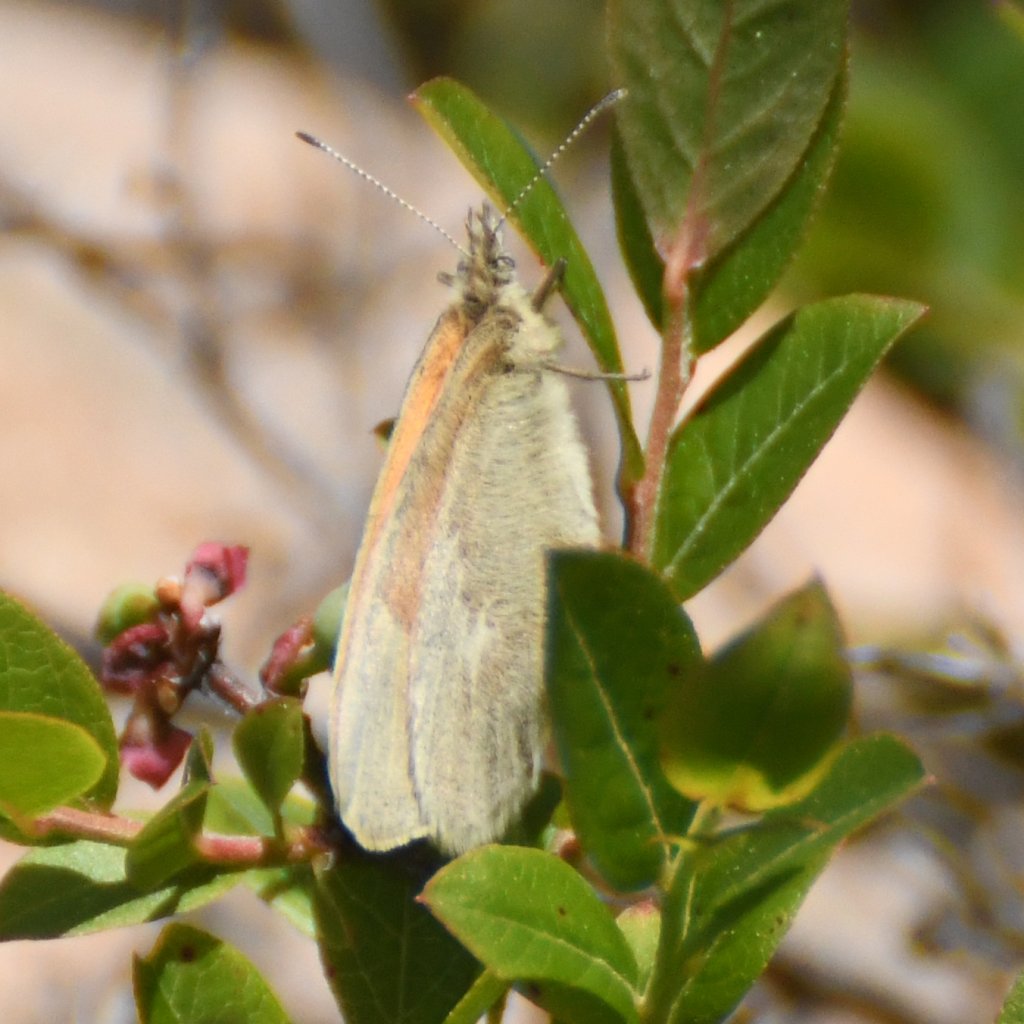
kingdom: Animalia
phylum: Arthropoda
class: Insecta
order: Lepidoptera
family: Nymphalidae
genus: Coenonympha
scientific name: Coenonympha tullia
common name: Large Heath
